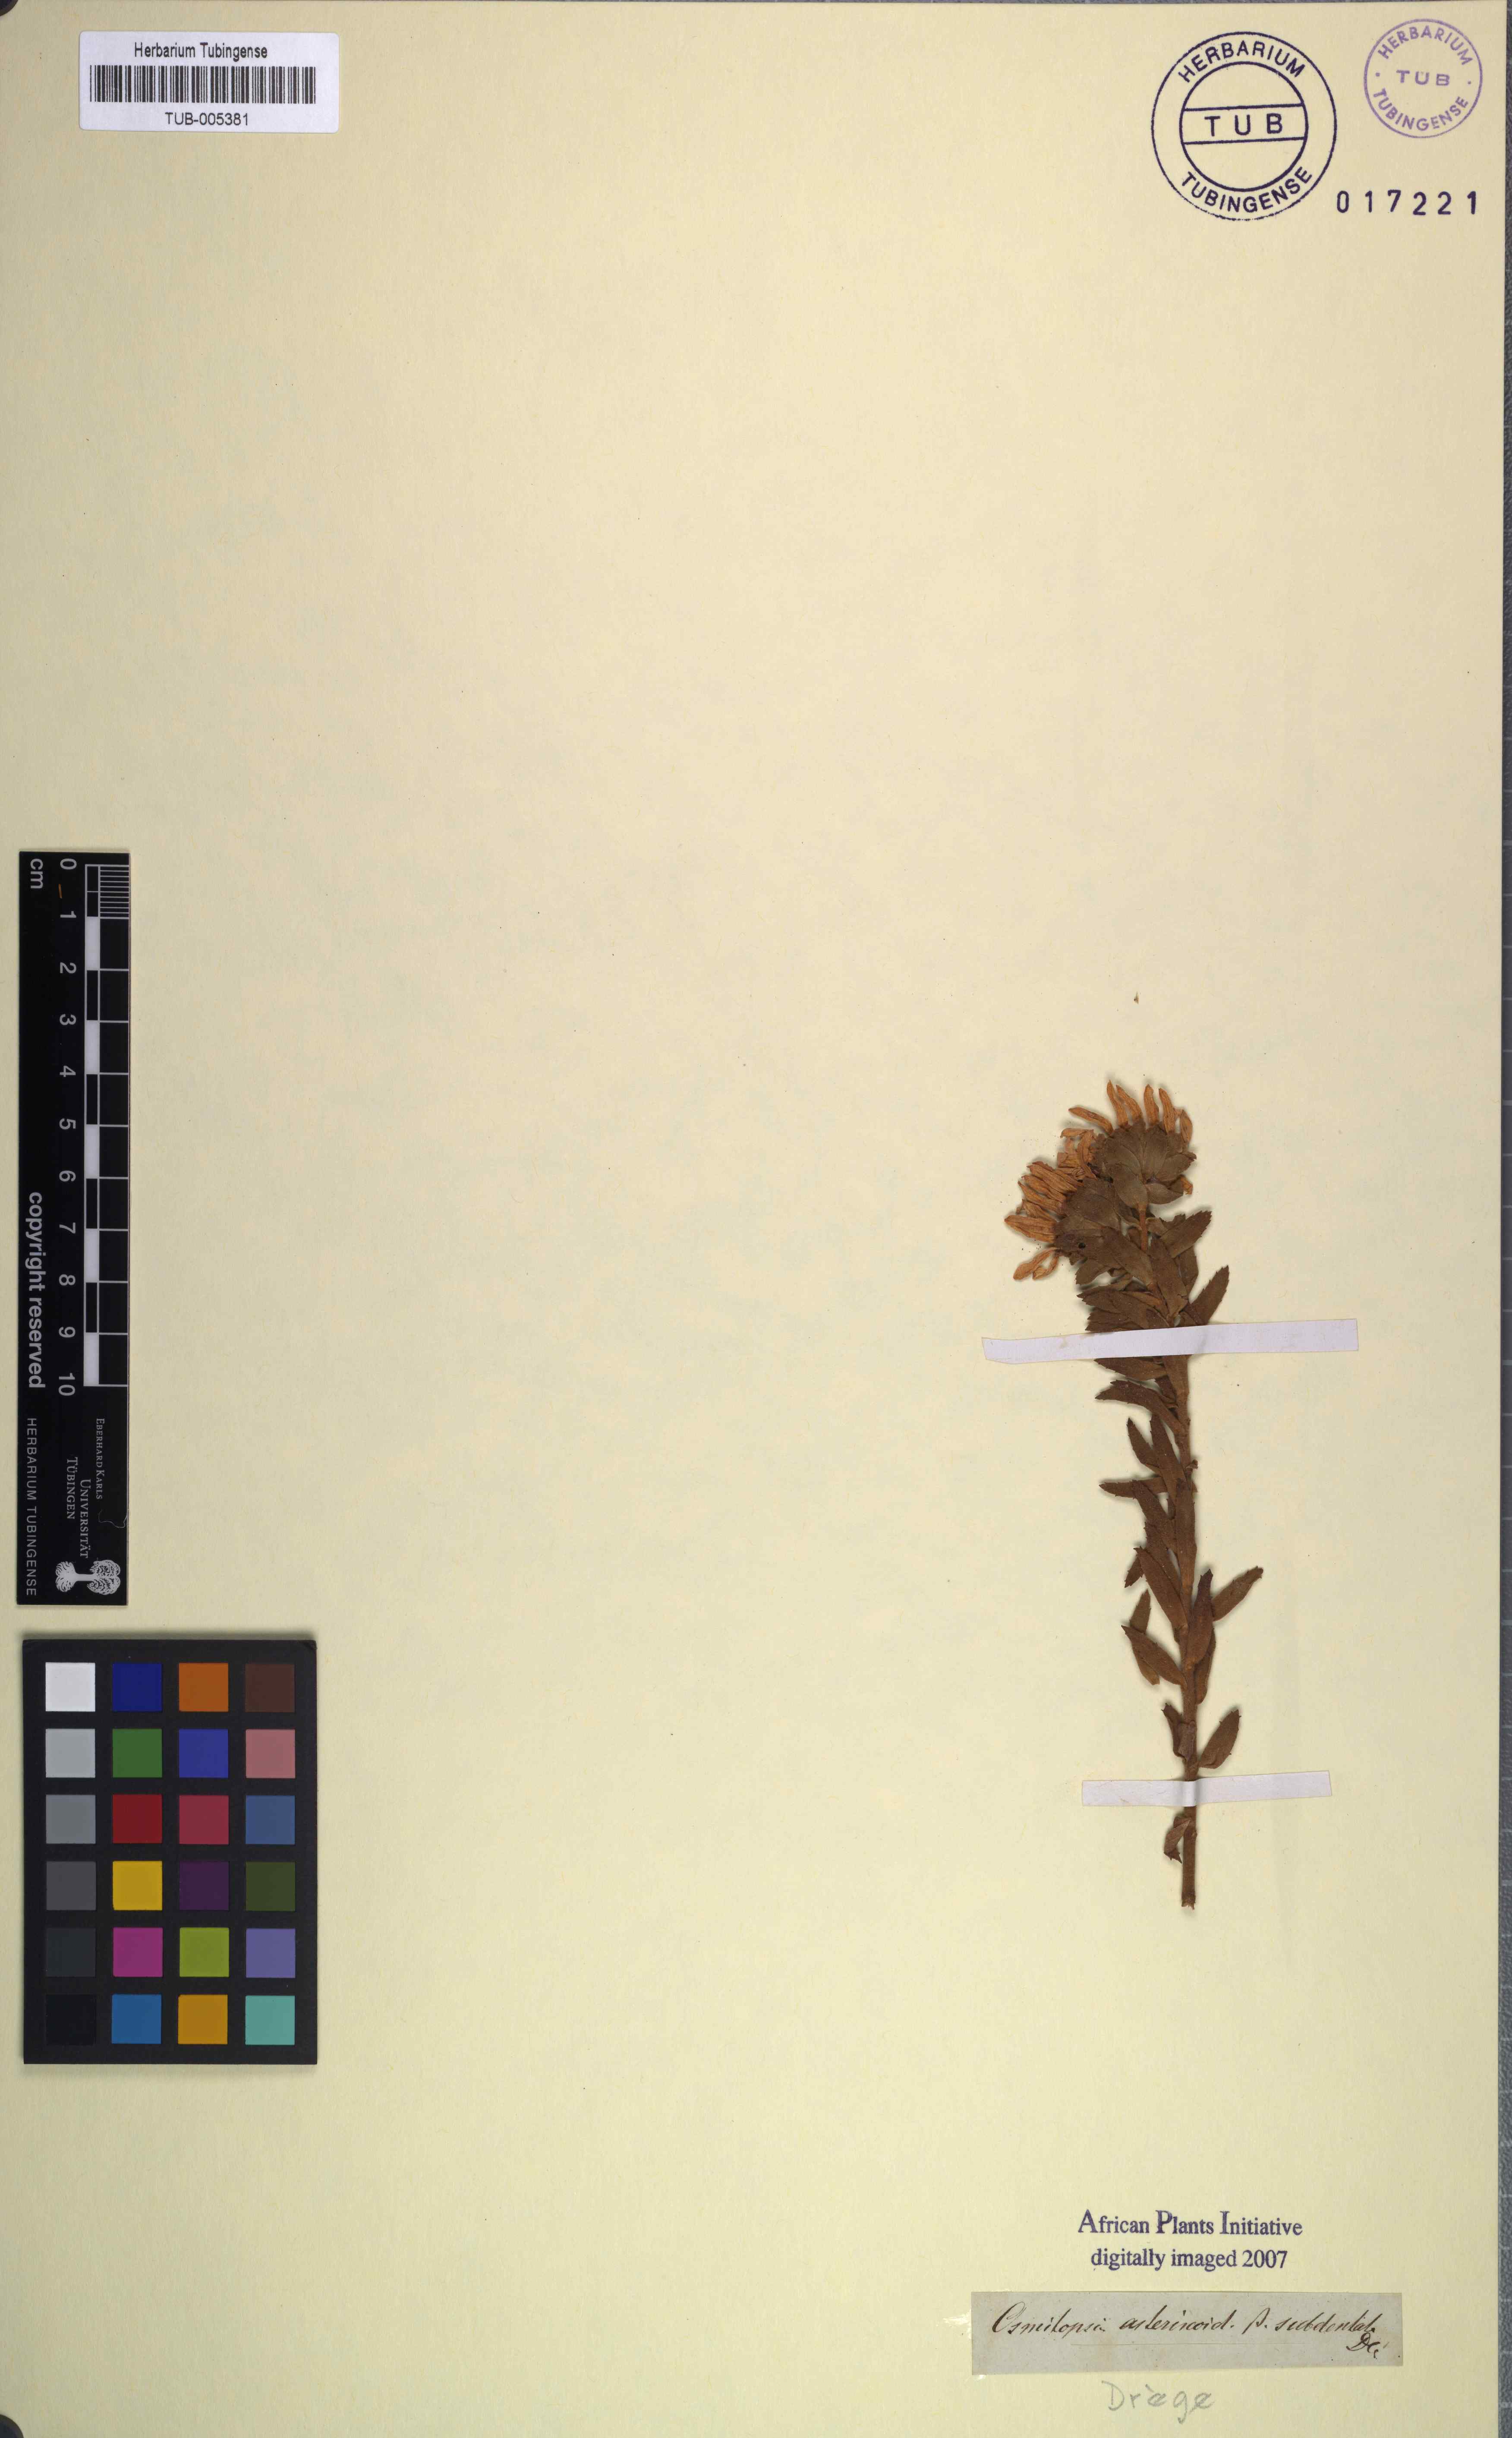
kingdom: Plantae
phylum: Tracheophyta
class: Magnoliopsida
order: Asterales
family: Asteraceae
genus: Osmitopsis
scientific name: Osmitopsis asteriscoides
